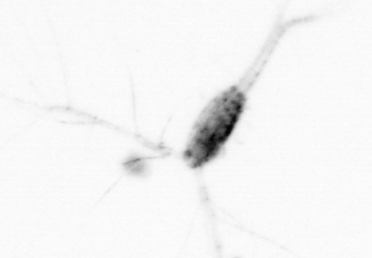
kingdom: Animalia
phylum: Arthropoda
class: Copepoda
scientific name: Copepoda
